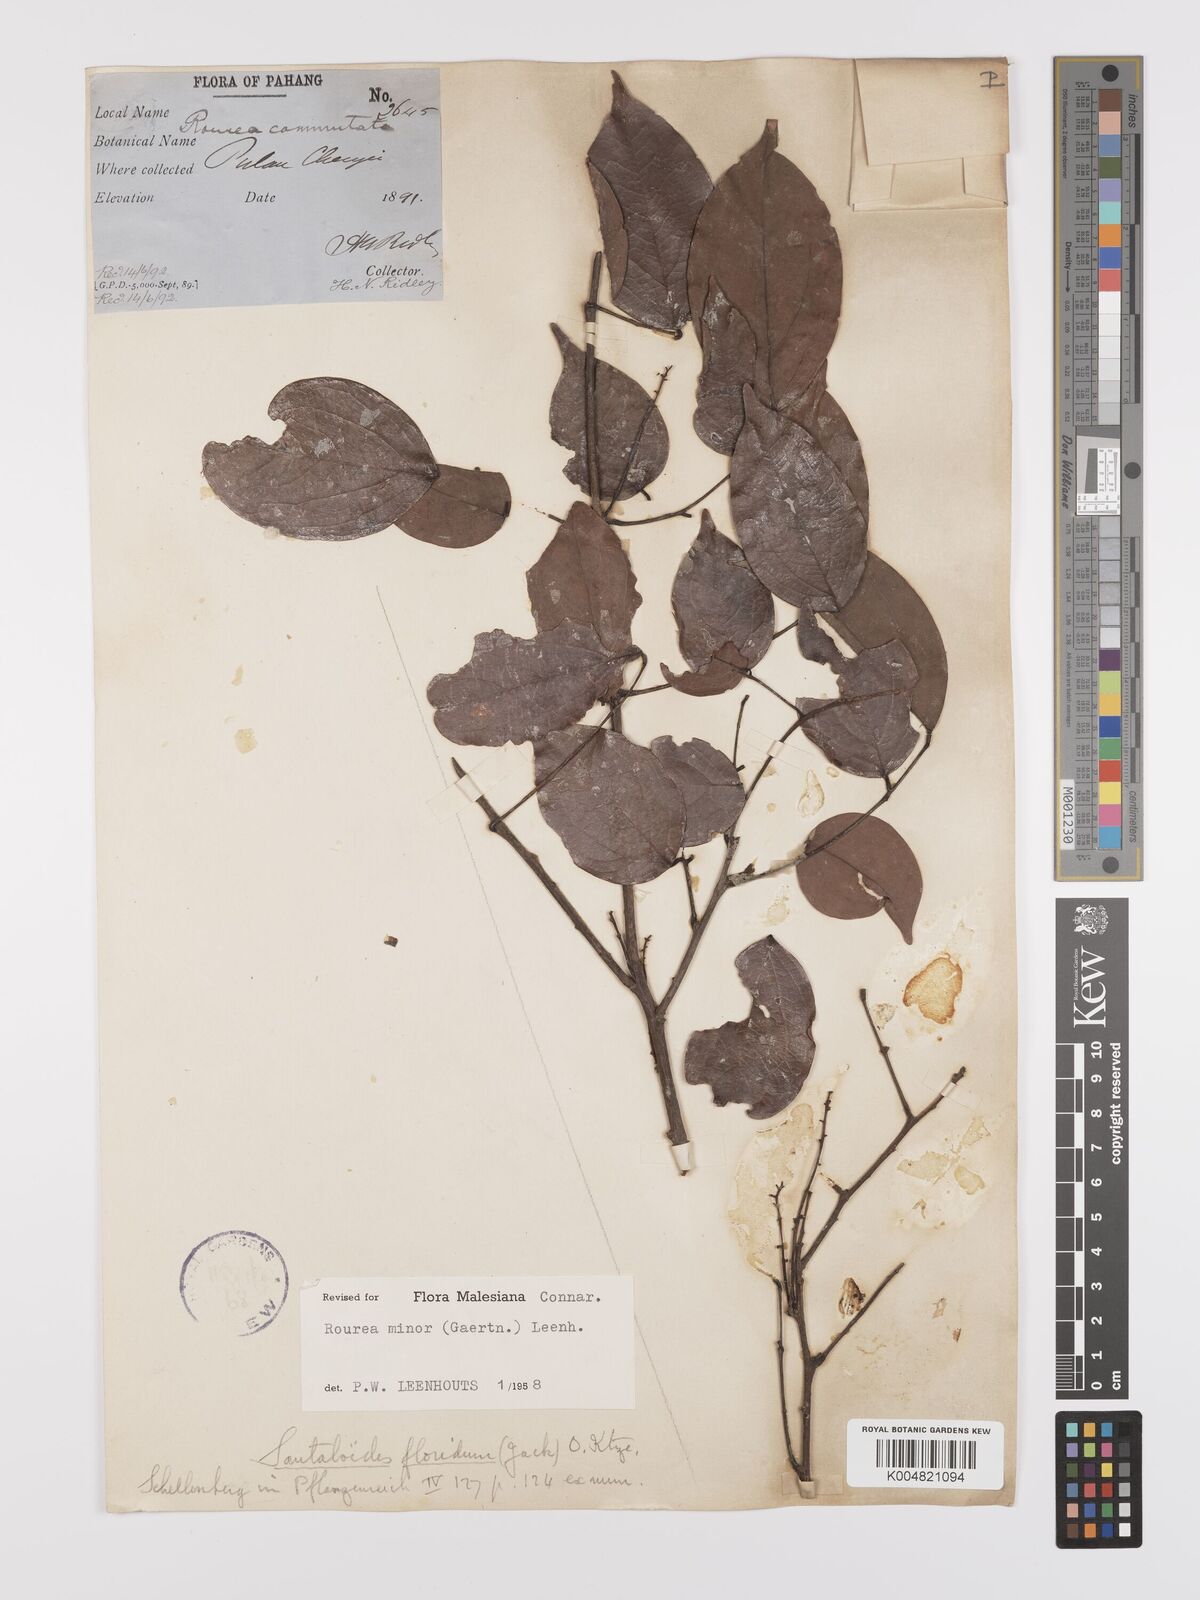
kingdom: Plantae
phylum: Tracheophyta
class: Magnoliopsida
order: Oxalidales
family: Connaraceae
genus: Rourea
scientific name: Rourea minor
